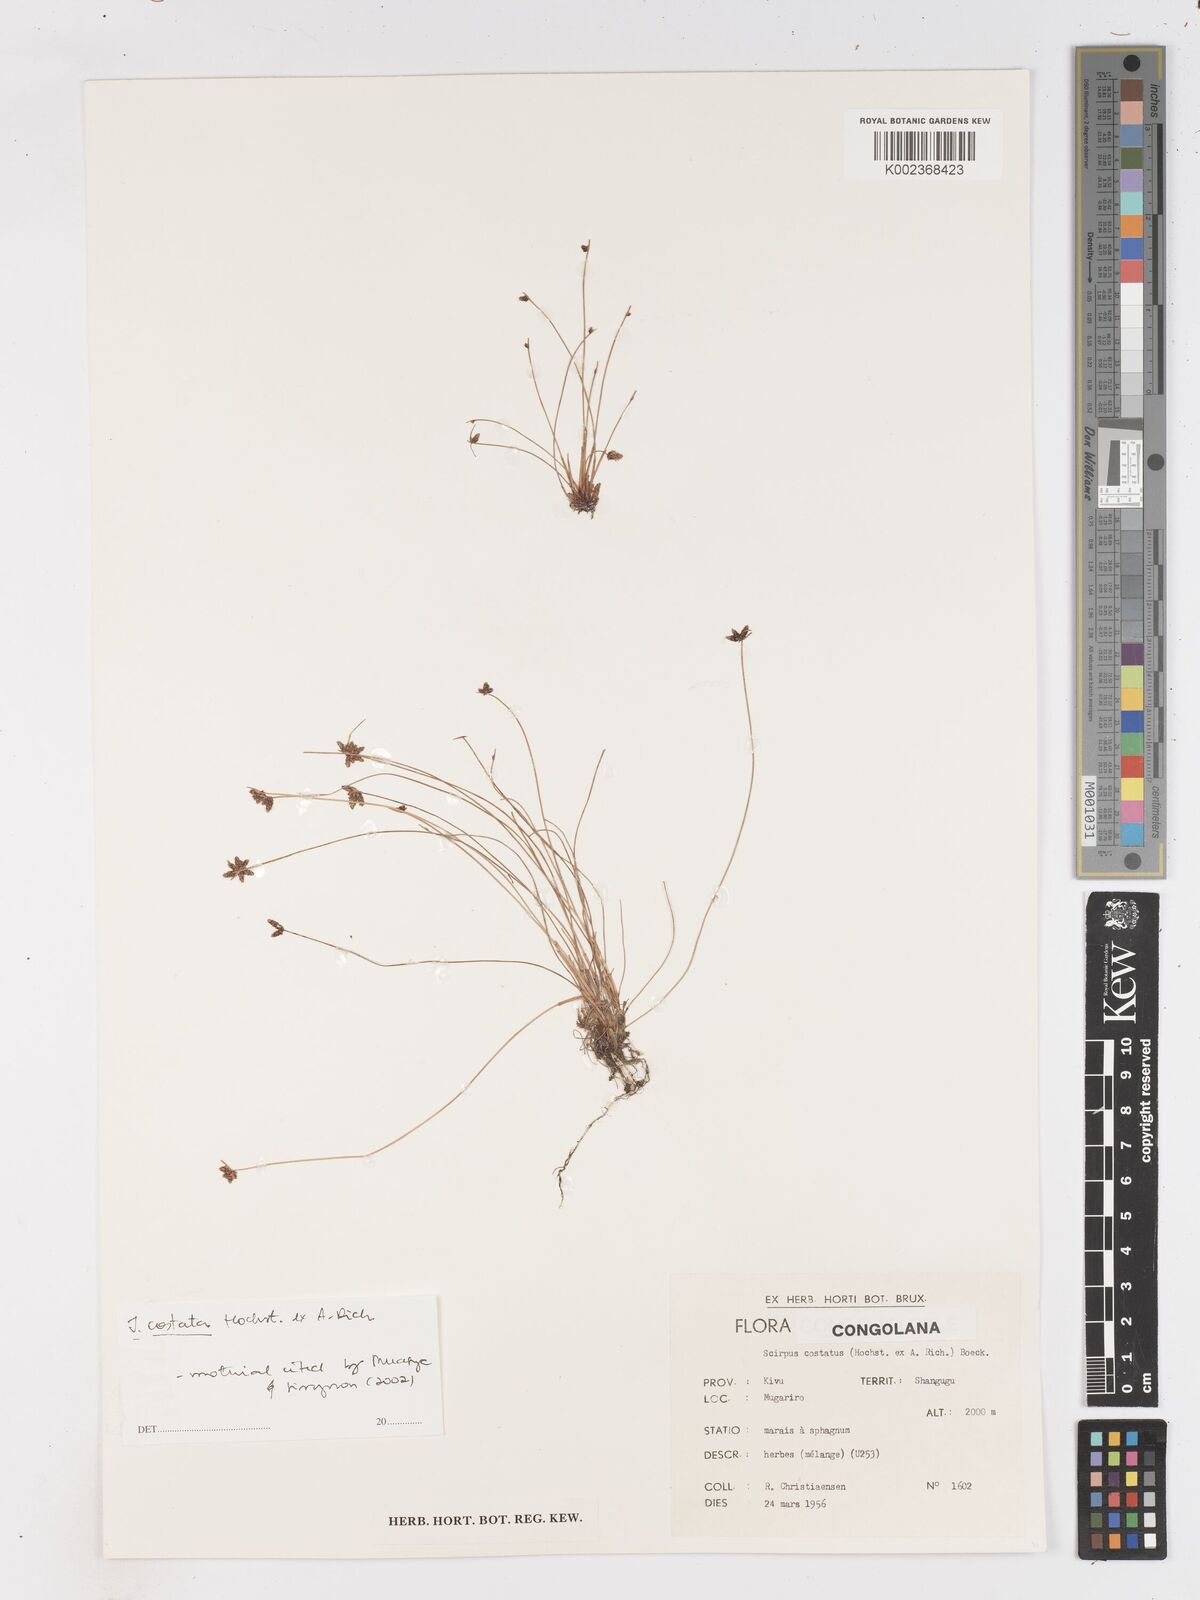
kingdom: Plantae
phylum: Tracheophyta
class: Liliopsida
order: Poales
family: Cyperaceae
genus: Isolepis
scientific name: Isolepis costata
